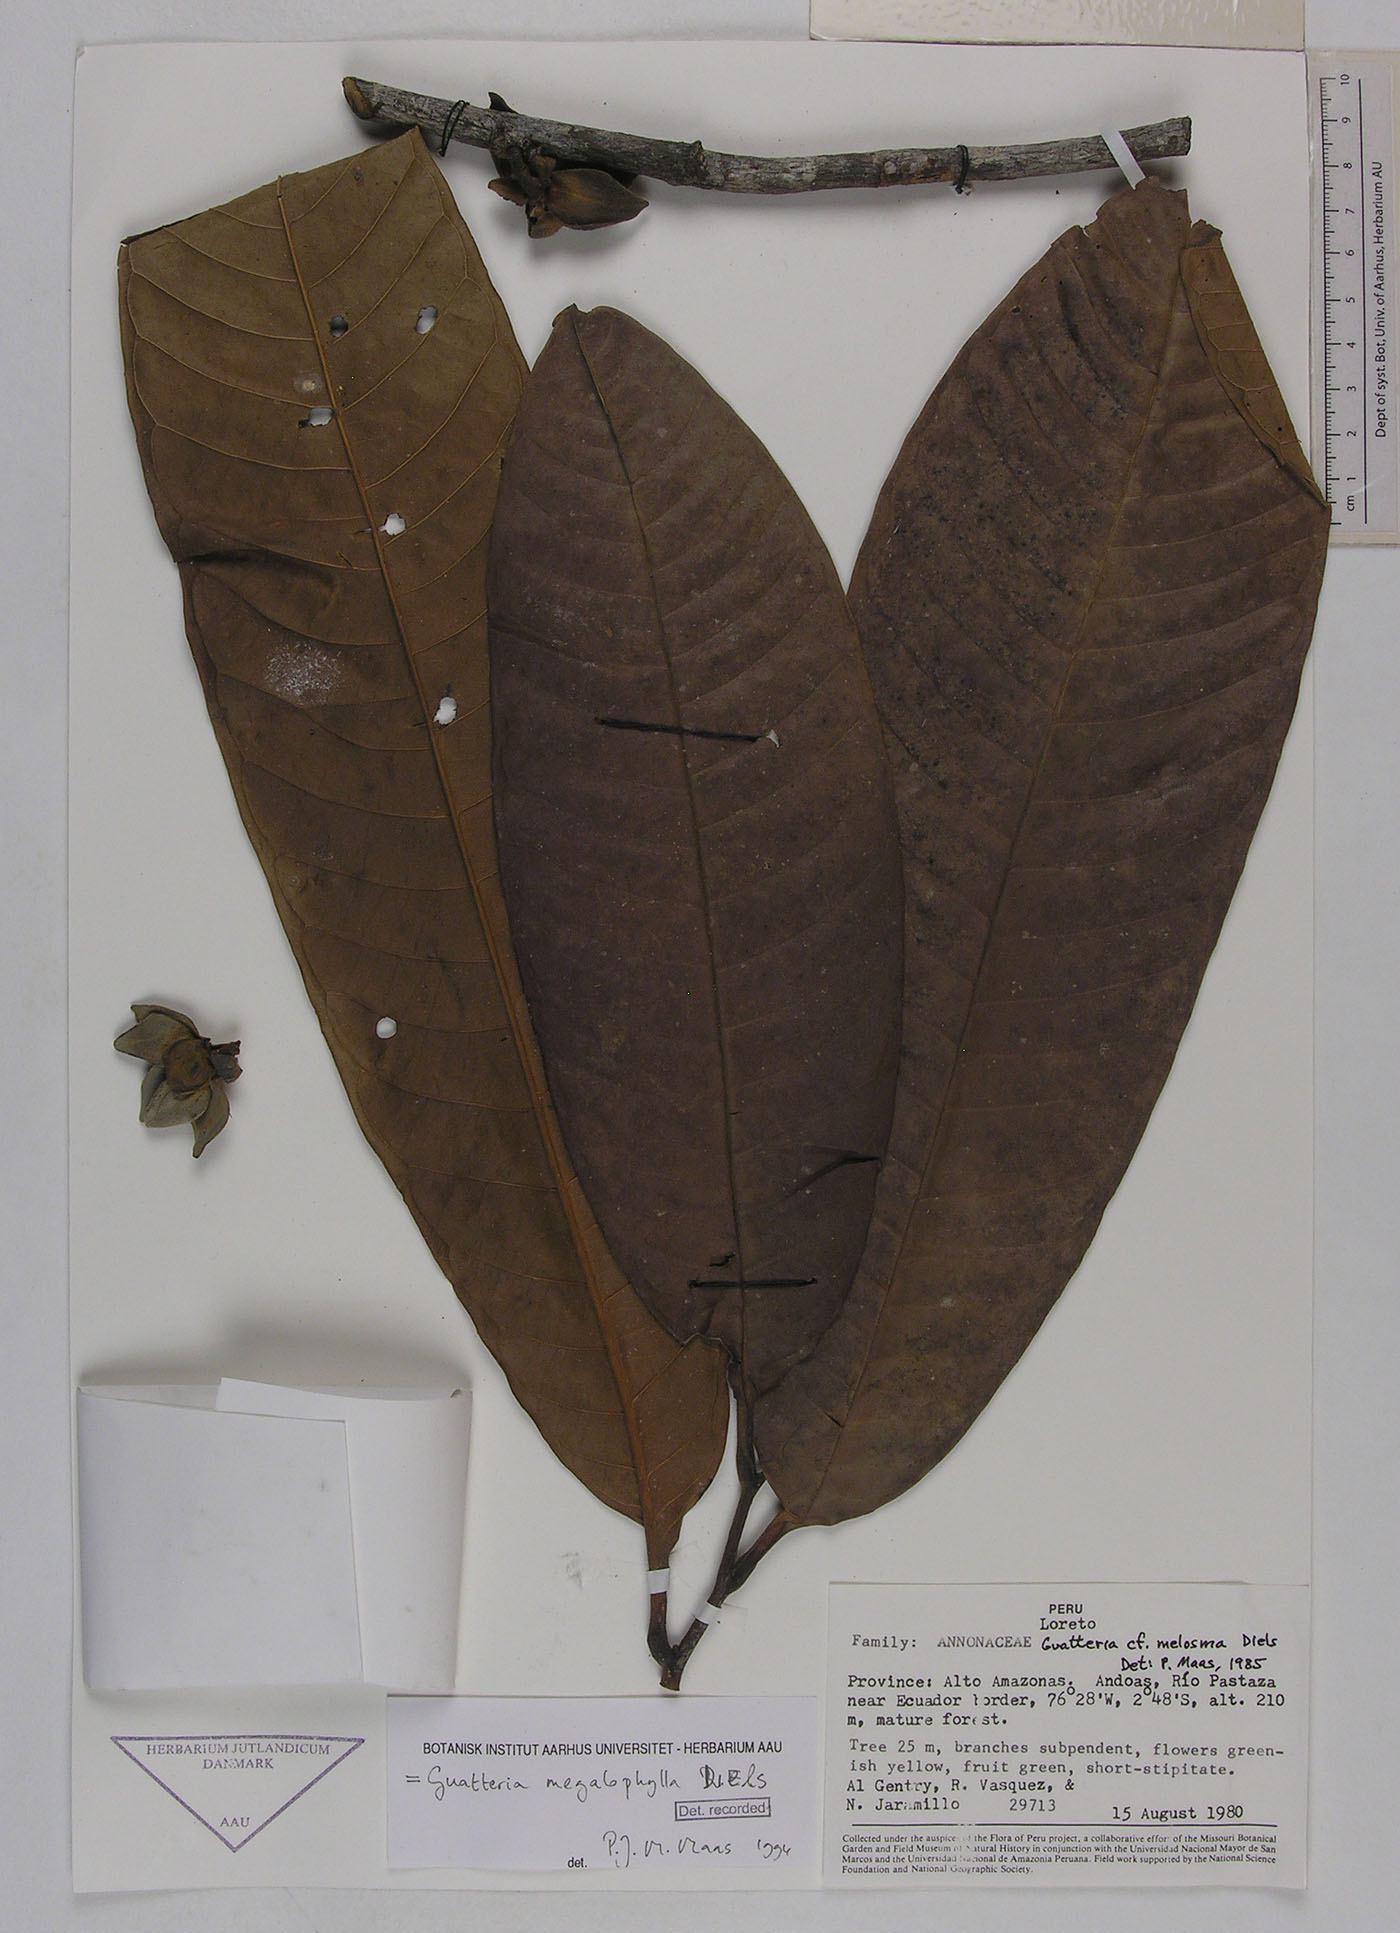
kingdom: Plantae
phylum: Tracheophyta
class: Magnoliopsida
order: Magnoliales
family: Annonaceae
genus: Guatteria
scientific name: Guatteria megalophylla
